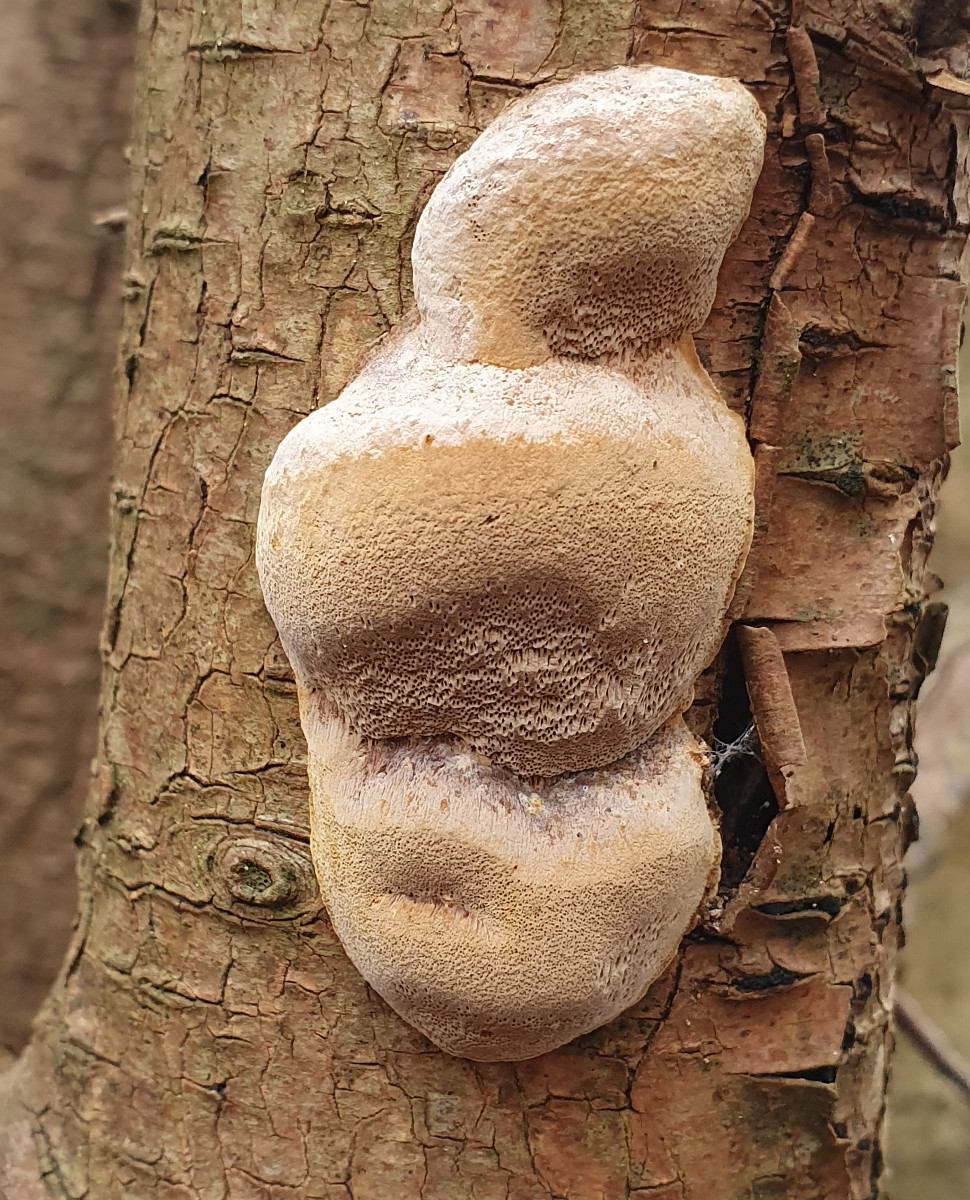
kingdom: Fungi
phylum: Basidiomycota
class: Agaricomycetes
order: Hymenochaetales
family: Hymenochaetaceae
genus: Phellinus
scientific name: Phellinus pomaceus
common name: blomme-ildporesvamp
